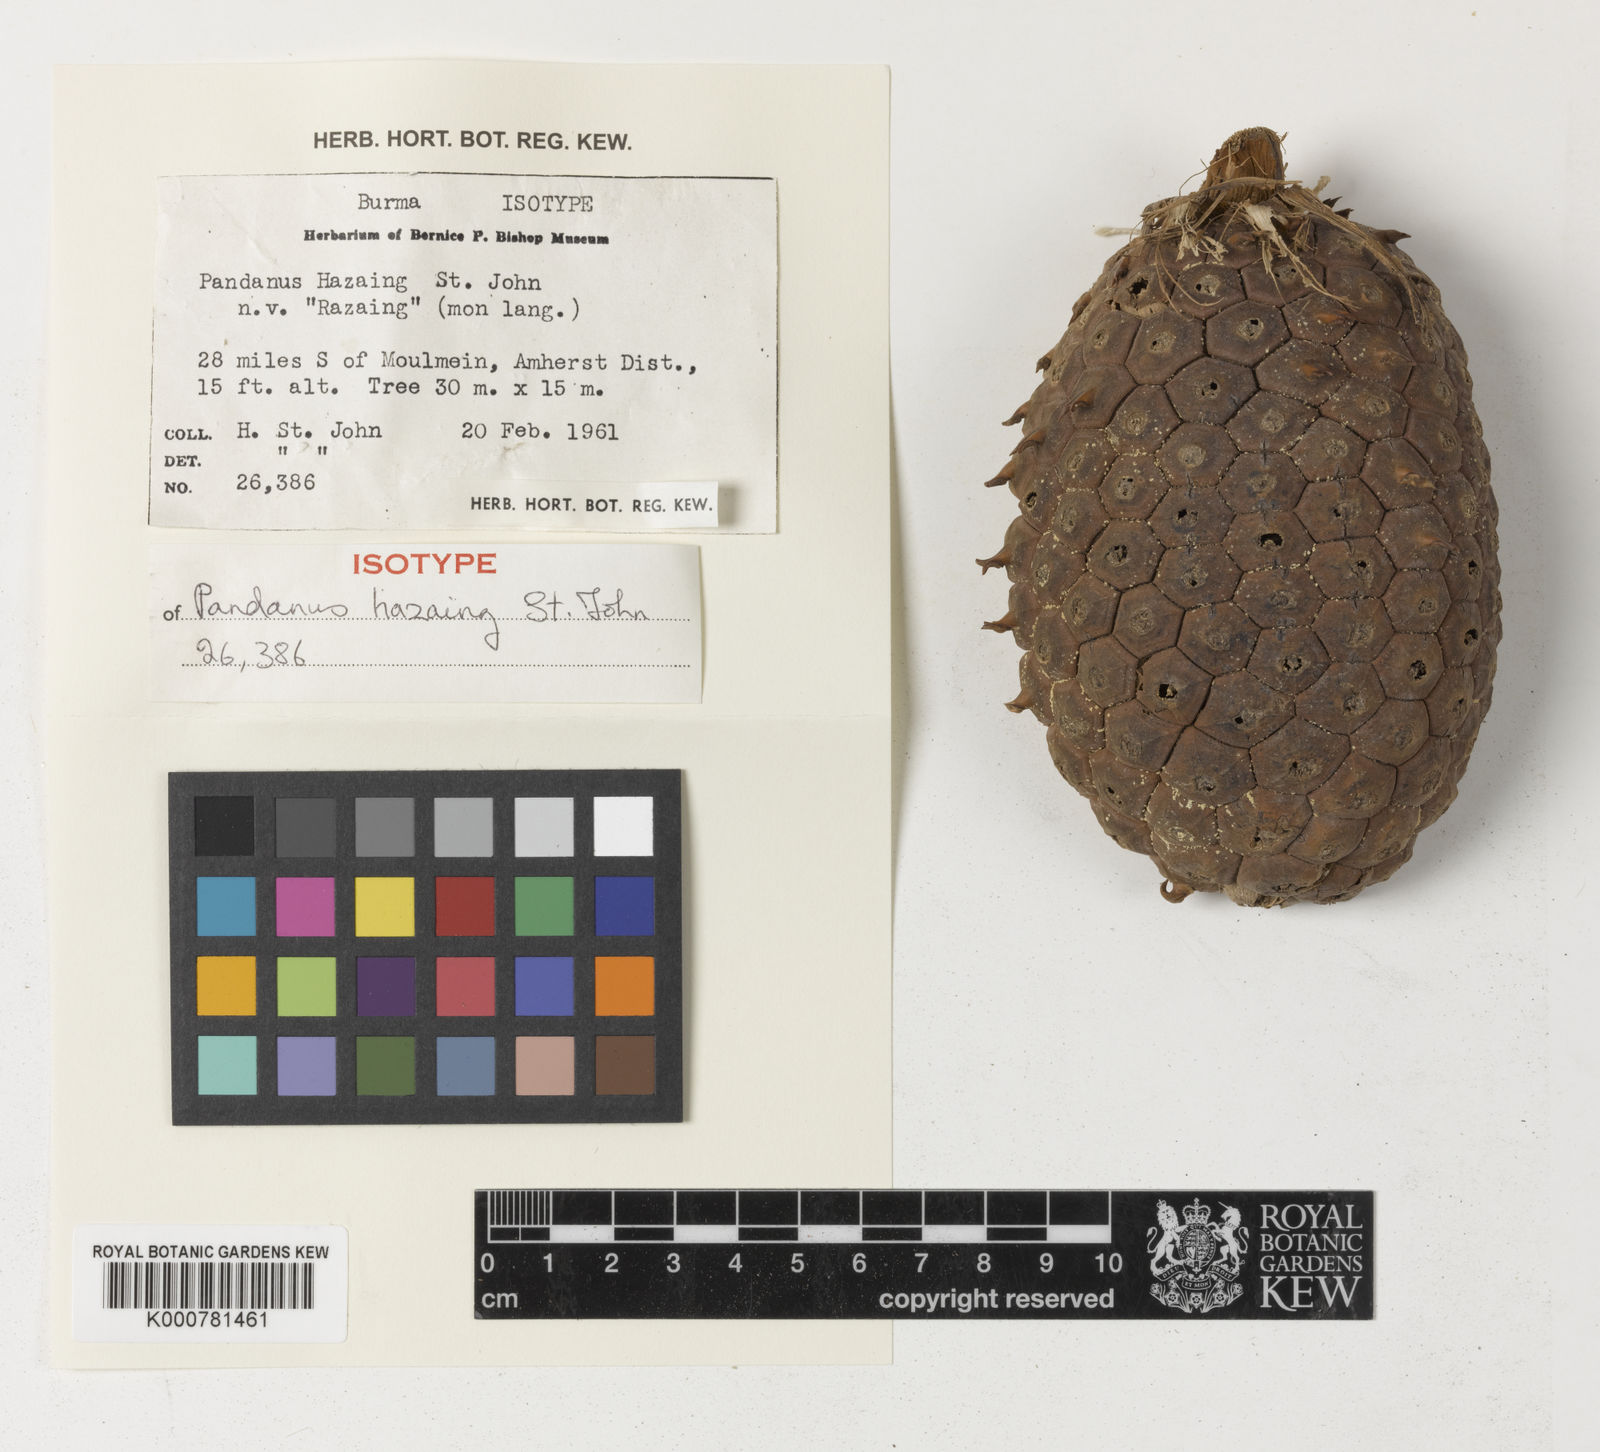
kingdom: Plantae
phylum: Tracheophyta
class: Liliopsida
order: Pandanales
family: Pandanaceae
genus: Pandanus
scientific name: Pandanus
